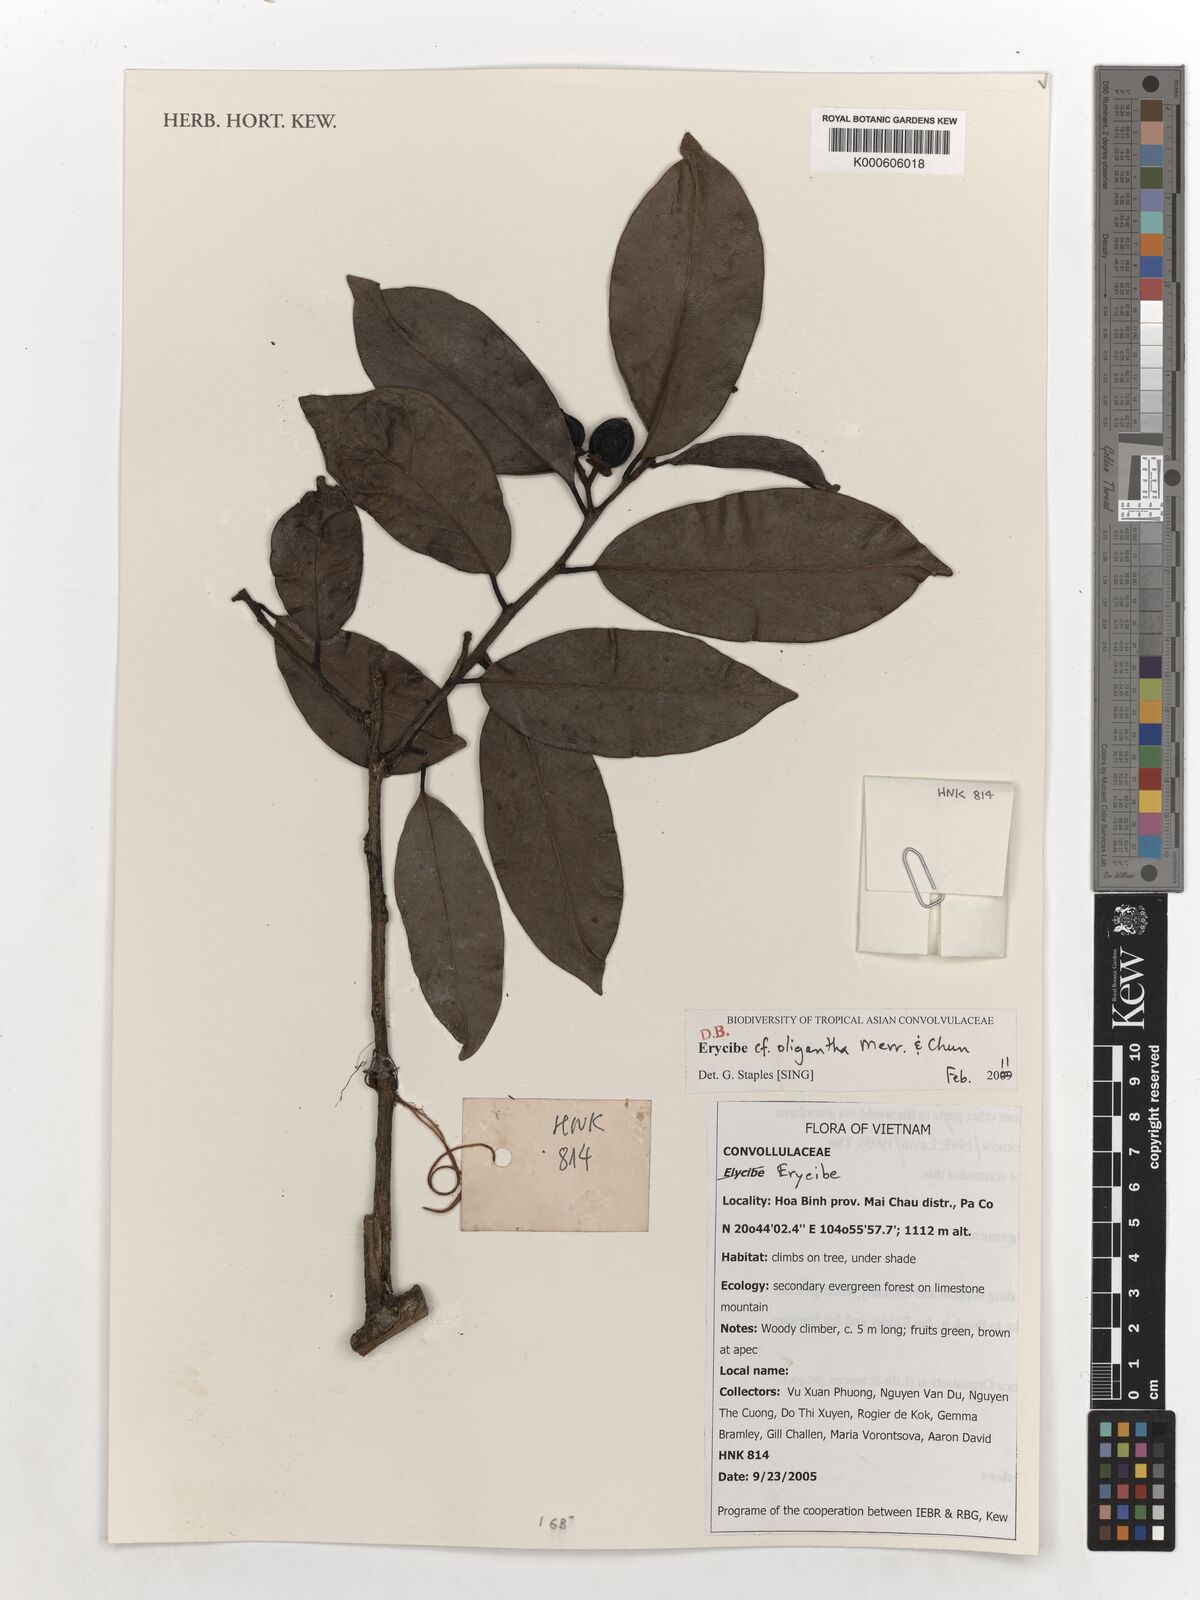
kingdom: Plantae
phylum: Tracheophyta
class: Magnoliopsida
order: Solanales
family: Convolvulaceae
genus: Erycibe
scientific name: Erycibe oligantha
